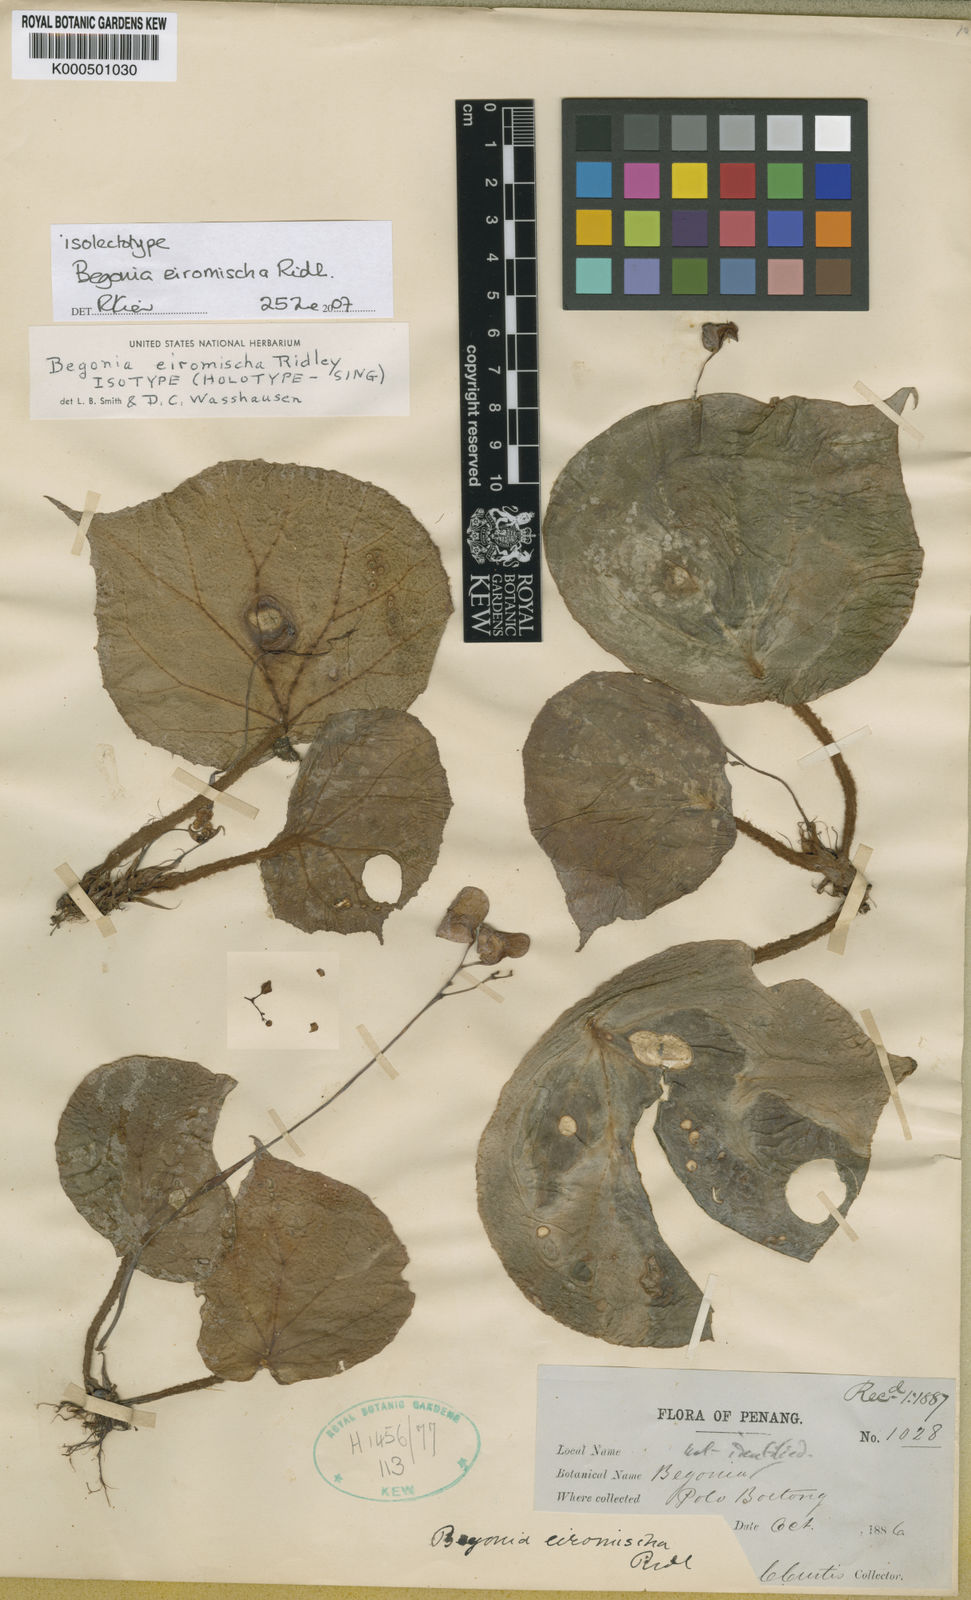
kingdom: Plantae
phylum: Tracheophyta
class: Magnoliopsida
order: Cucurbitales
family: Begoniaceae
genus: Begonia
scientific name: Begonia eiromischa
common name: Woolly-stalked begonia
